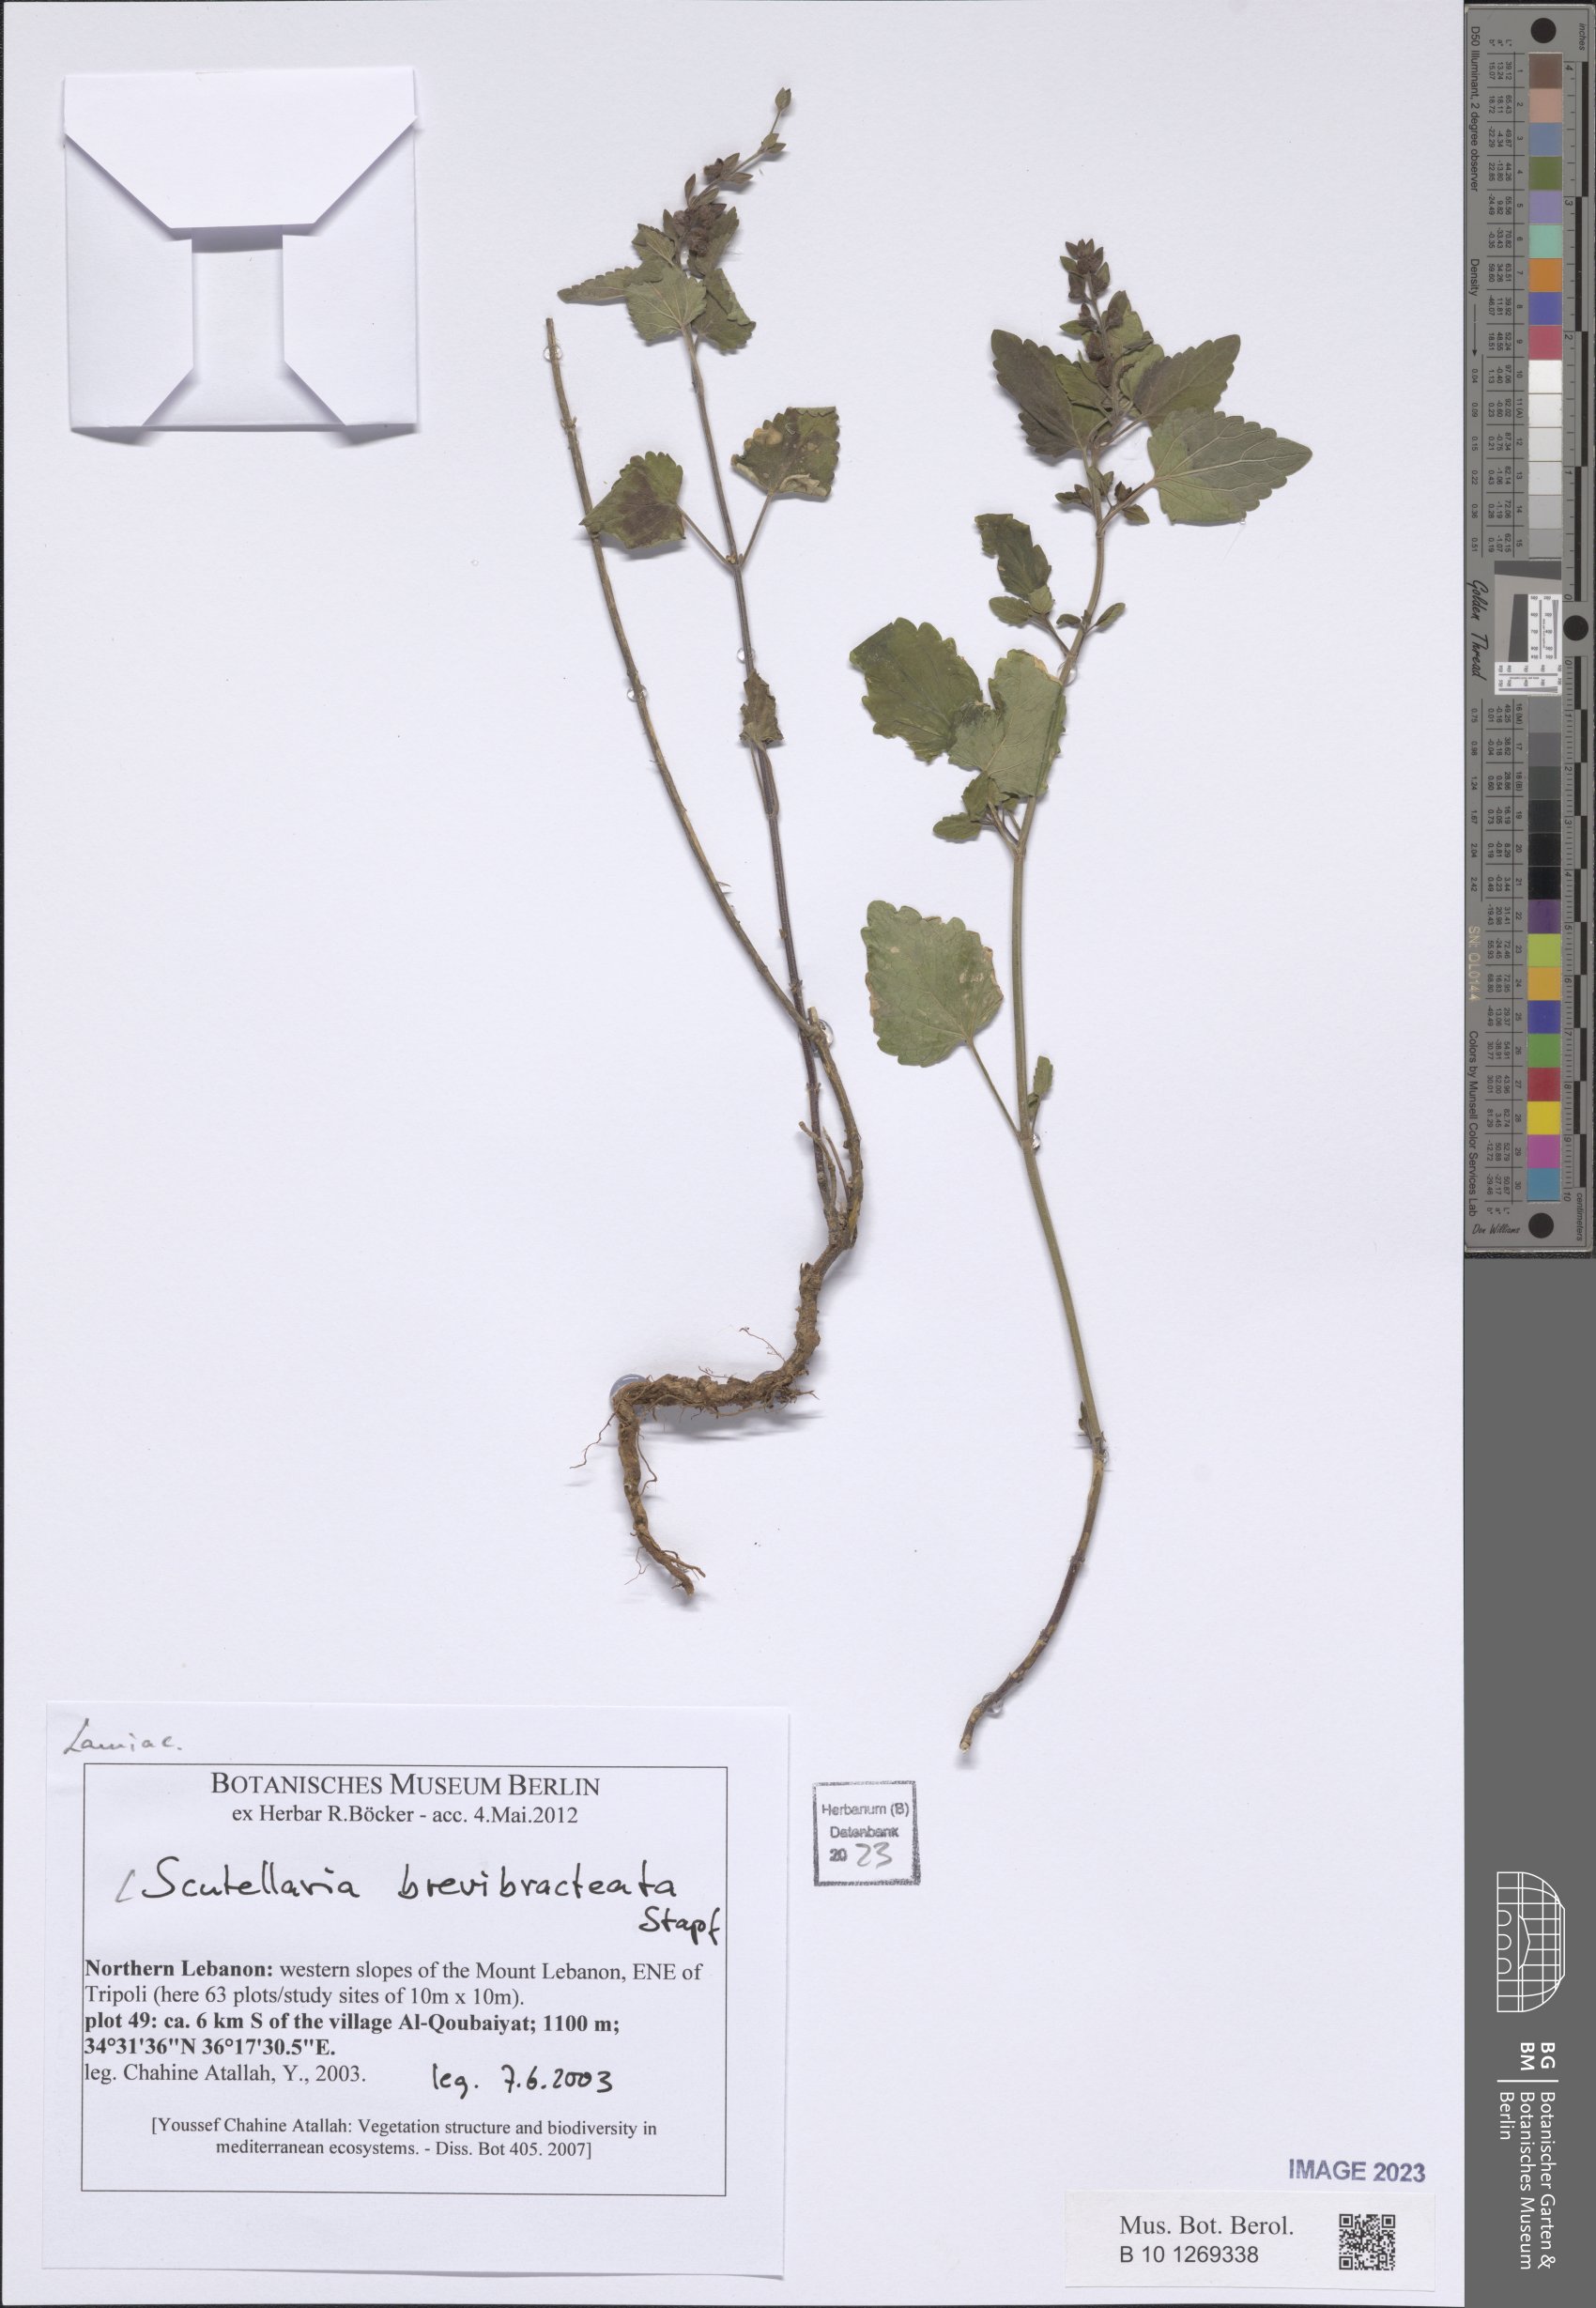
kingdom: Plantae
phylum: Tracheophyta
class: Magnoliopsida
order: Lamiales
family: Lamiaceae
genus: Scutellaria
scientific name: Scutellaria brevibracteata
